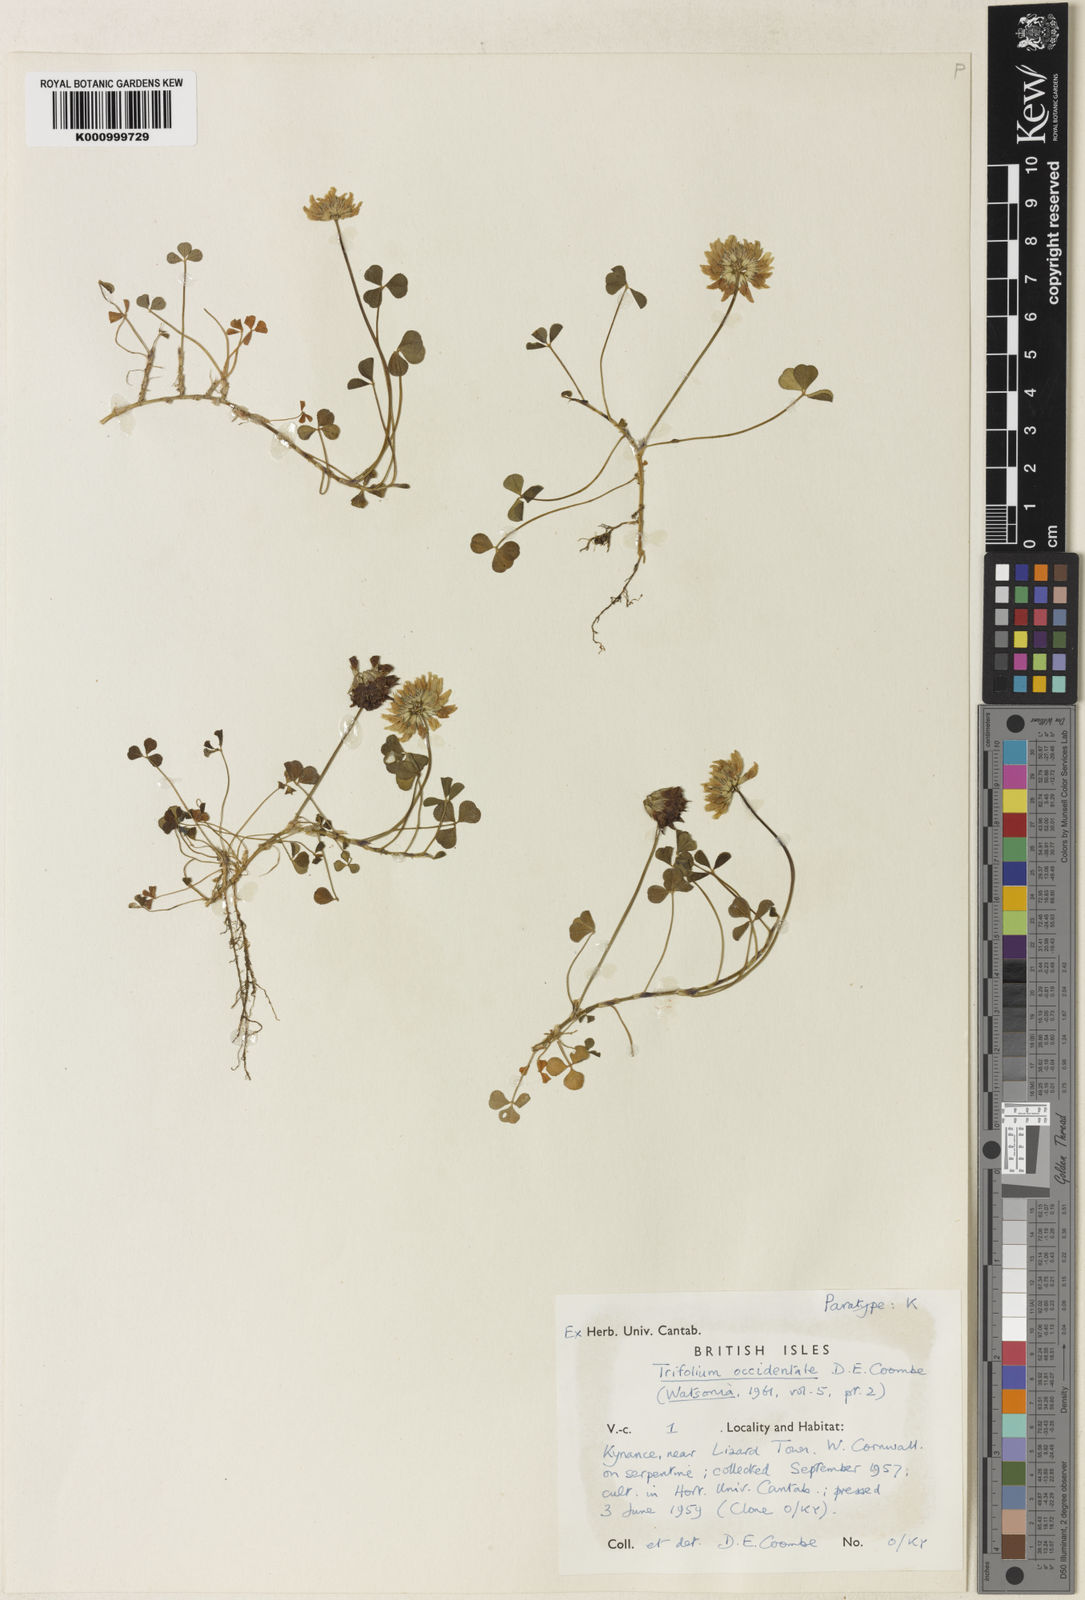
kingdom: Plantae
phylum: Tracheophyta
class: Magnoliopsida
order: Fabales
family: Fabaceae
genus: Trifolium
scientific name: Trifolium occidentale
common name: Western clover
